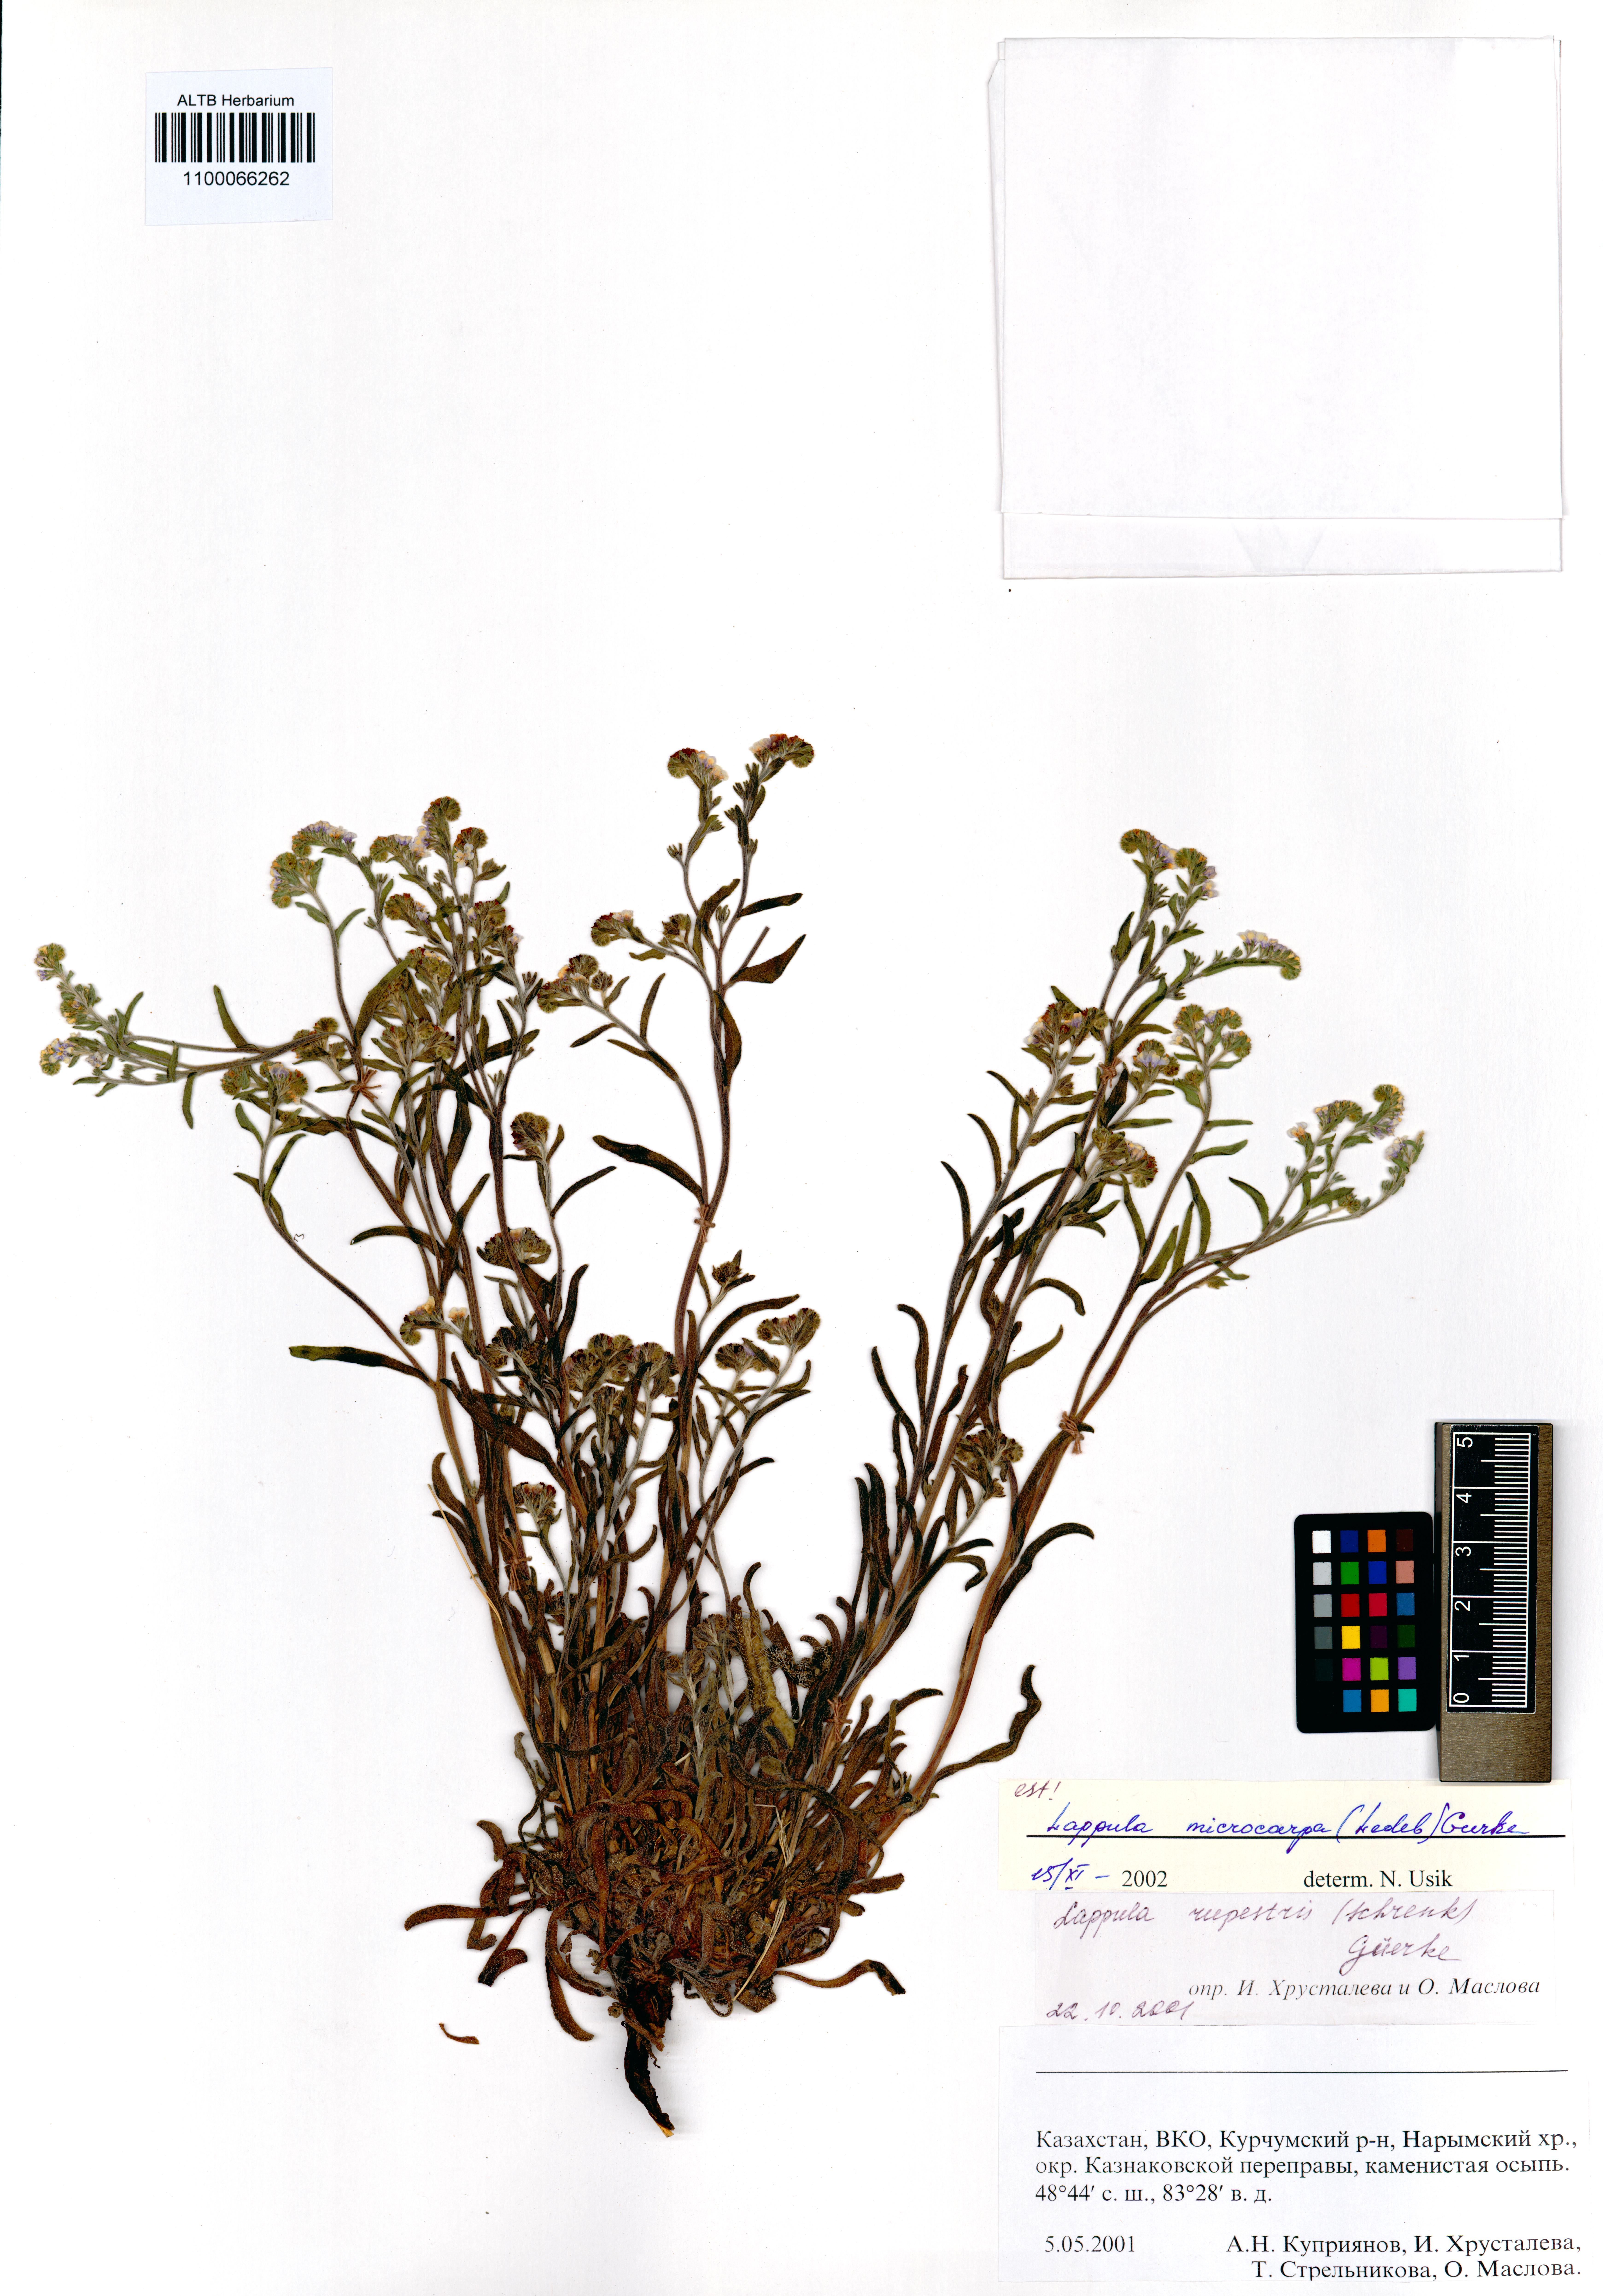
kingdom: Plantae
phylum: Tracheophyta
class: Magnoliopsida
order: Boraginales
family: Boraginaceae
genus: Lappula
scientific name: Lappula microcarpa
